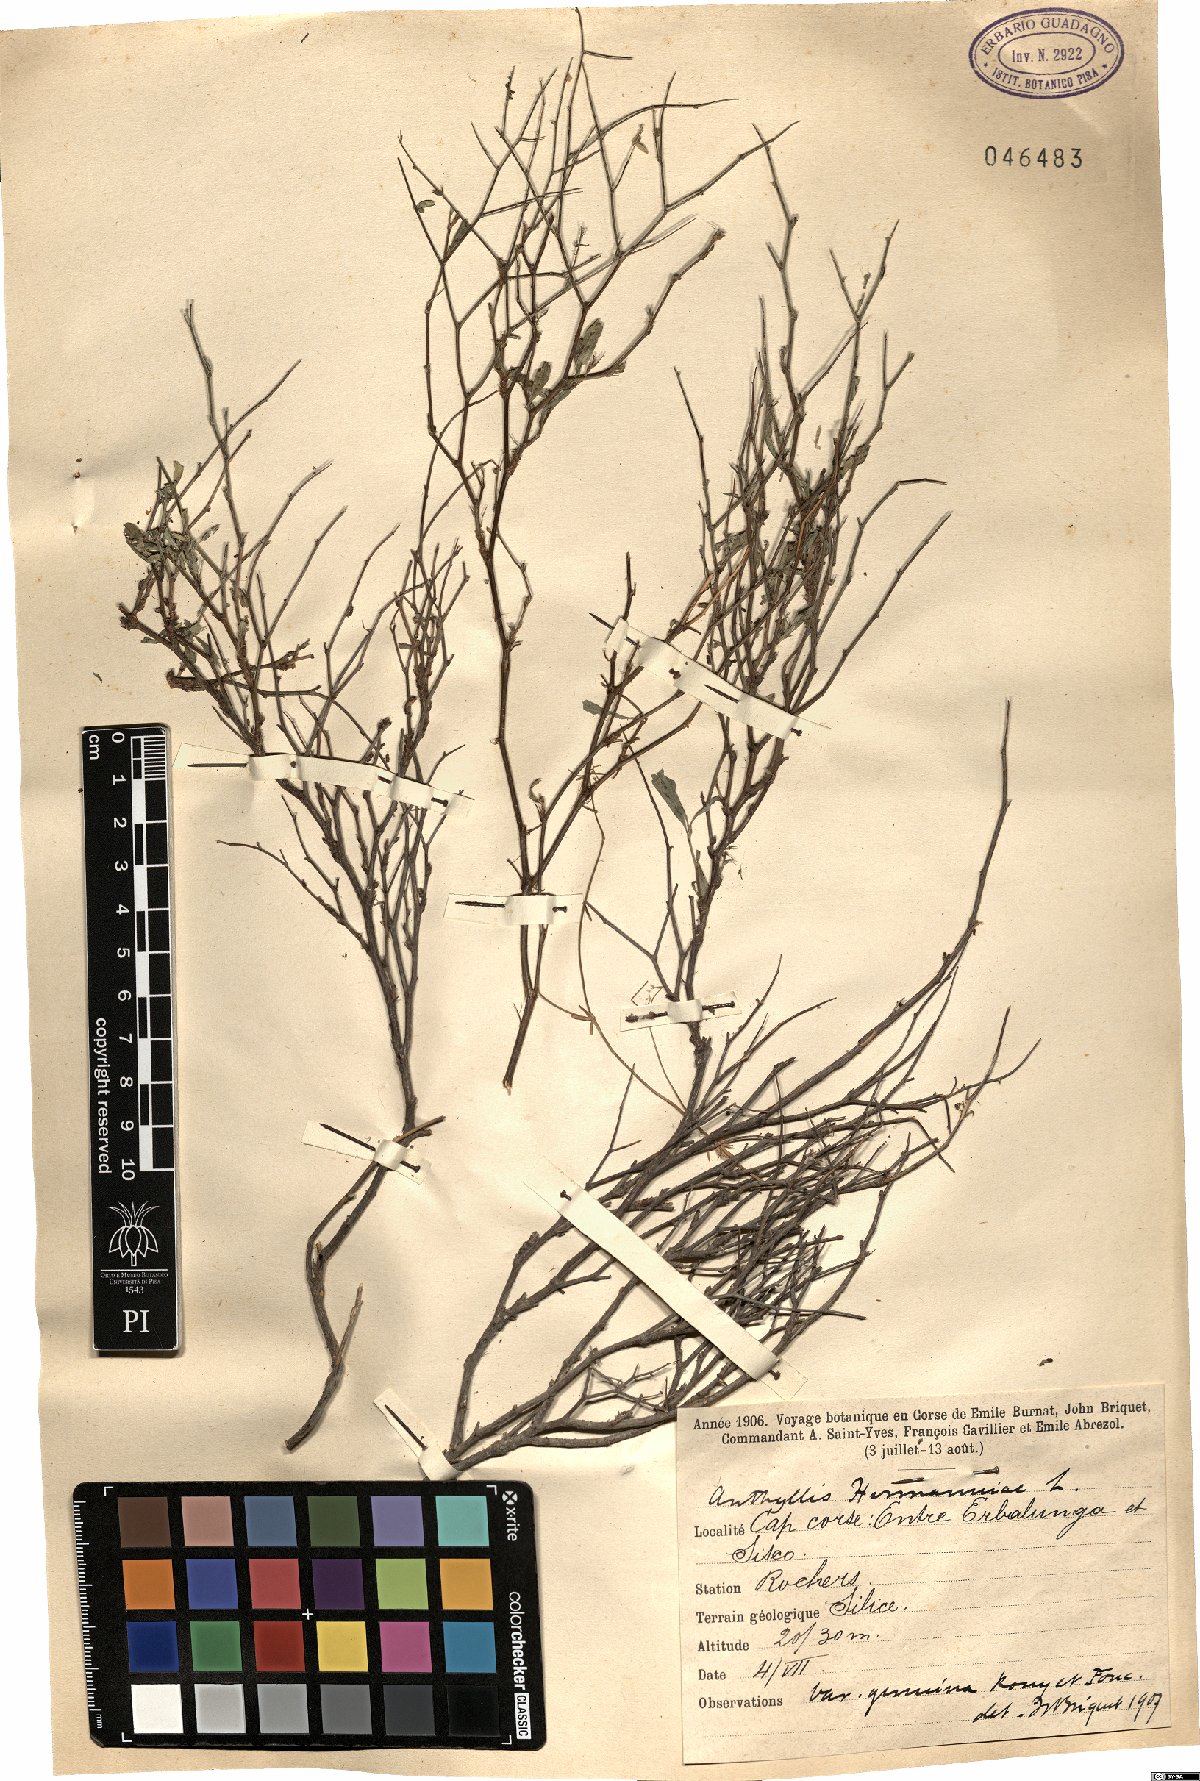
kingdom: Plantae
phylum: Tracheophyta
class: Magnoliopsida
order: Fabales
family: Fabaceae
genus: Anthyllis
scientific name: Anthyllis hermanniae
